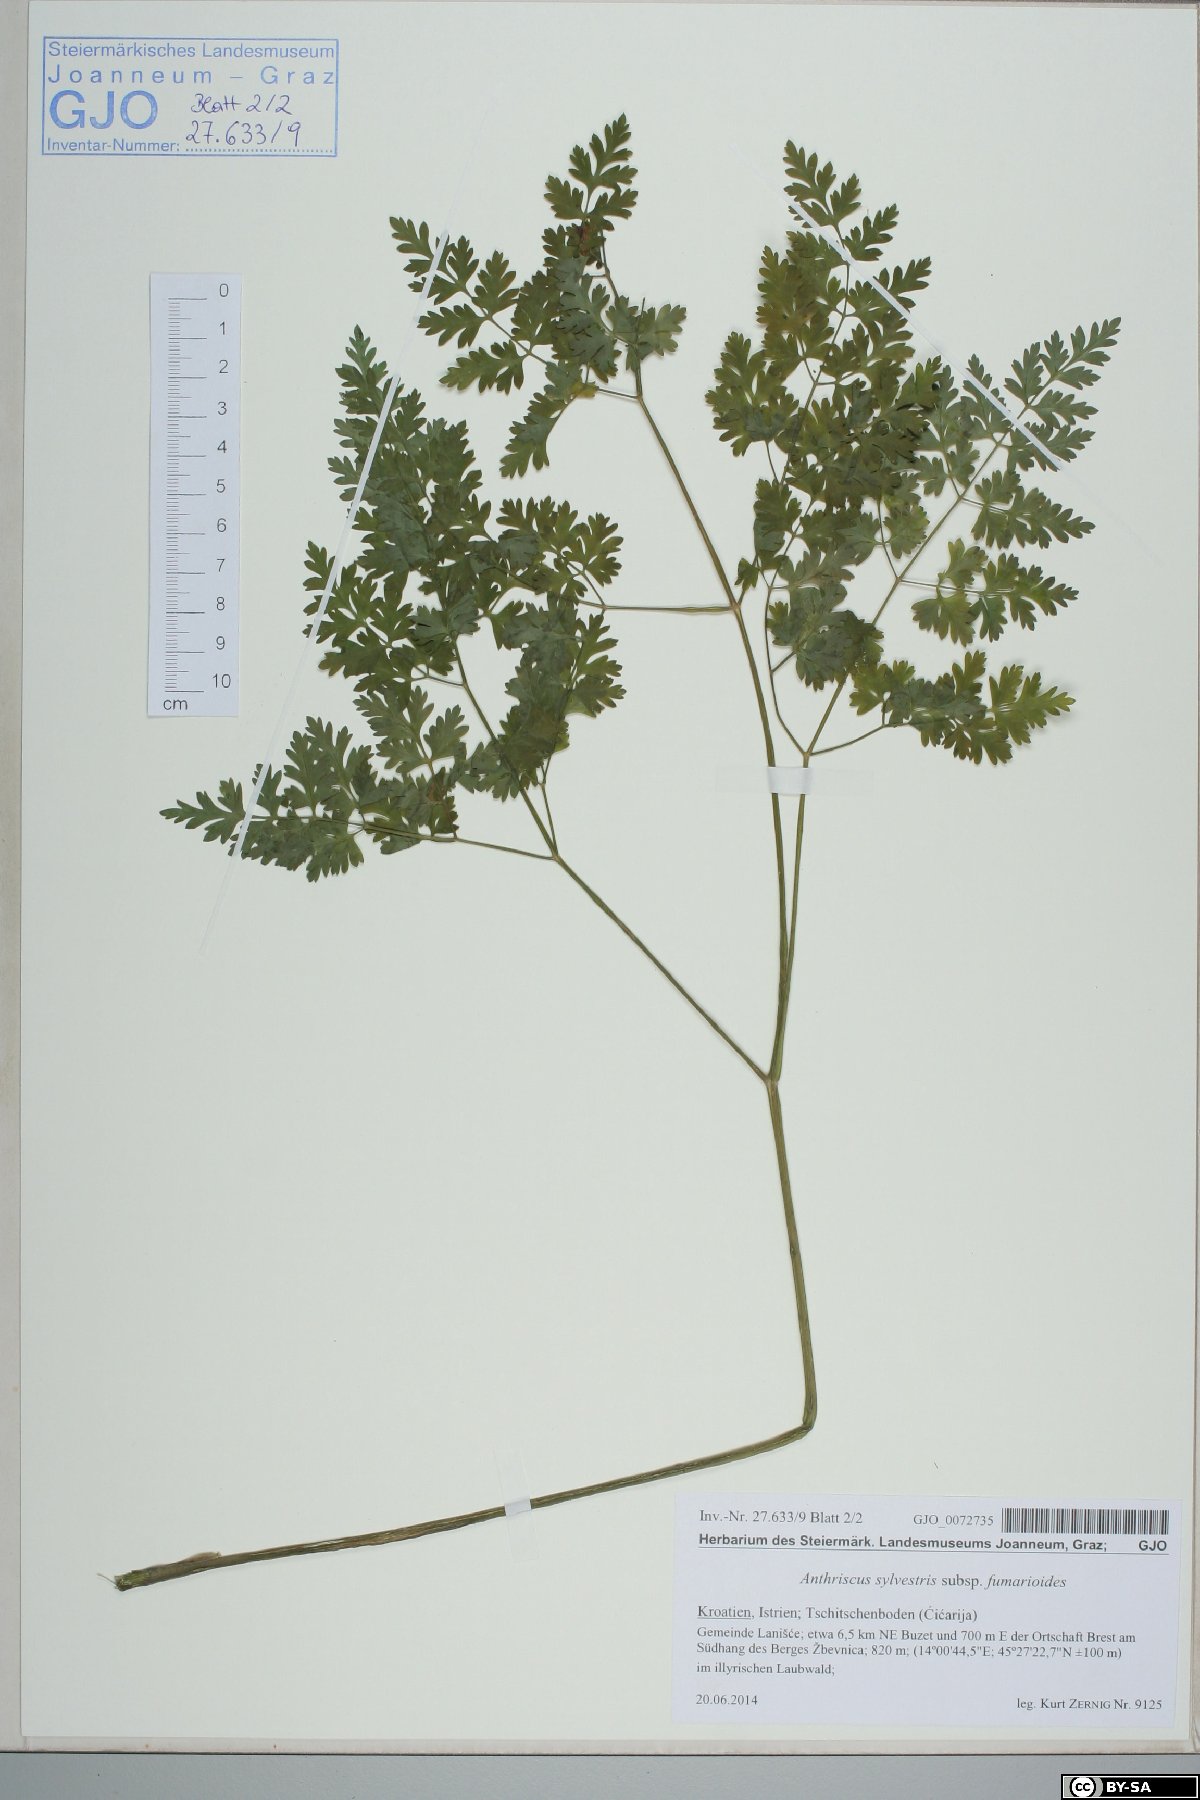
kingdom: Plantae
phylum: Tracheophyta
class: Magnoliopsida
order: Apiales
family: Apiaceae
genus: Anthriscus
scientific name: Anthriscus fumarioides
